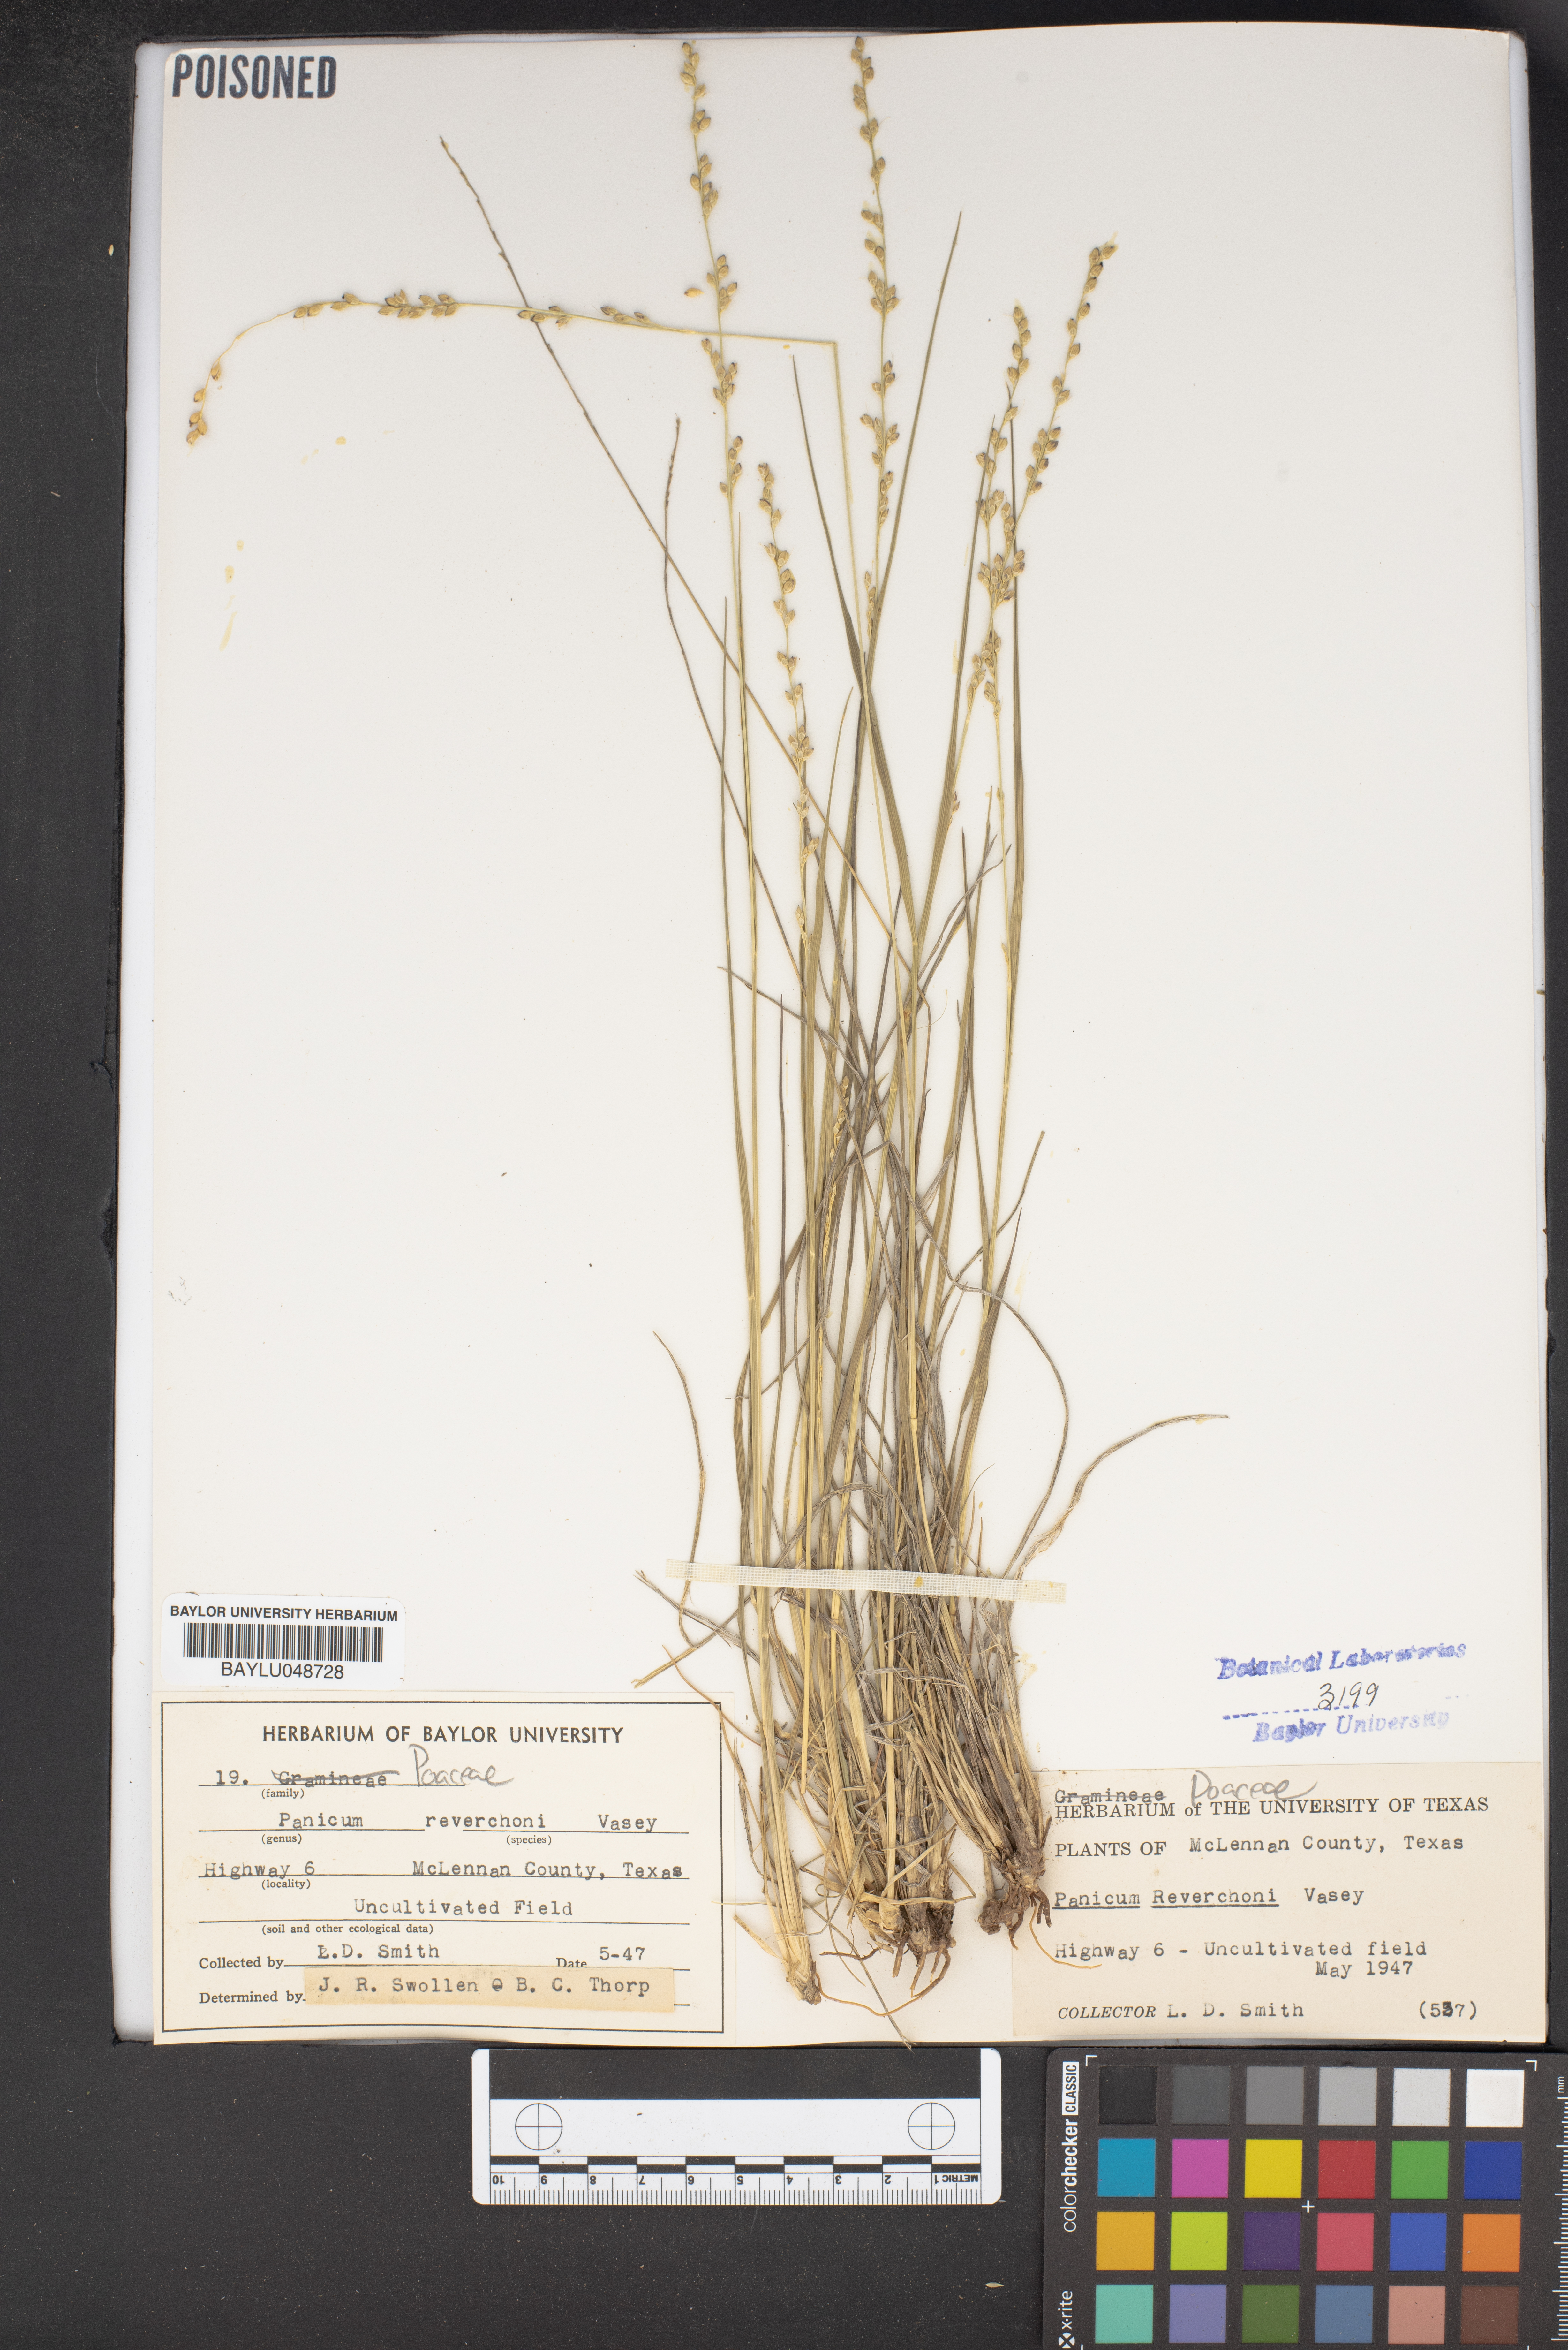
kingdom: Plantae
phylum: Tracheophyta
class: Liliopsida
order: Poales
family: Poaceae
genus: Setaria
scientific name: Setaria reverchonii
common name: Reverchon's bristle grass
